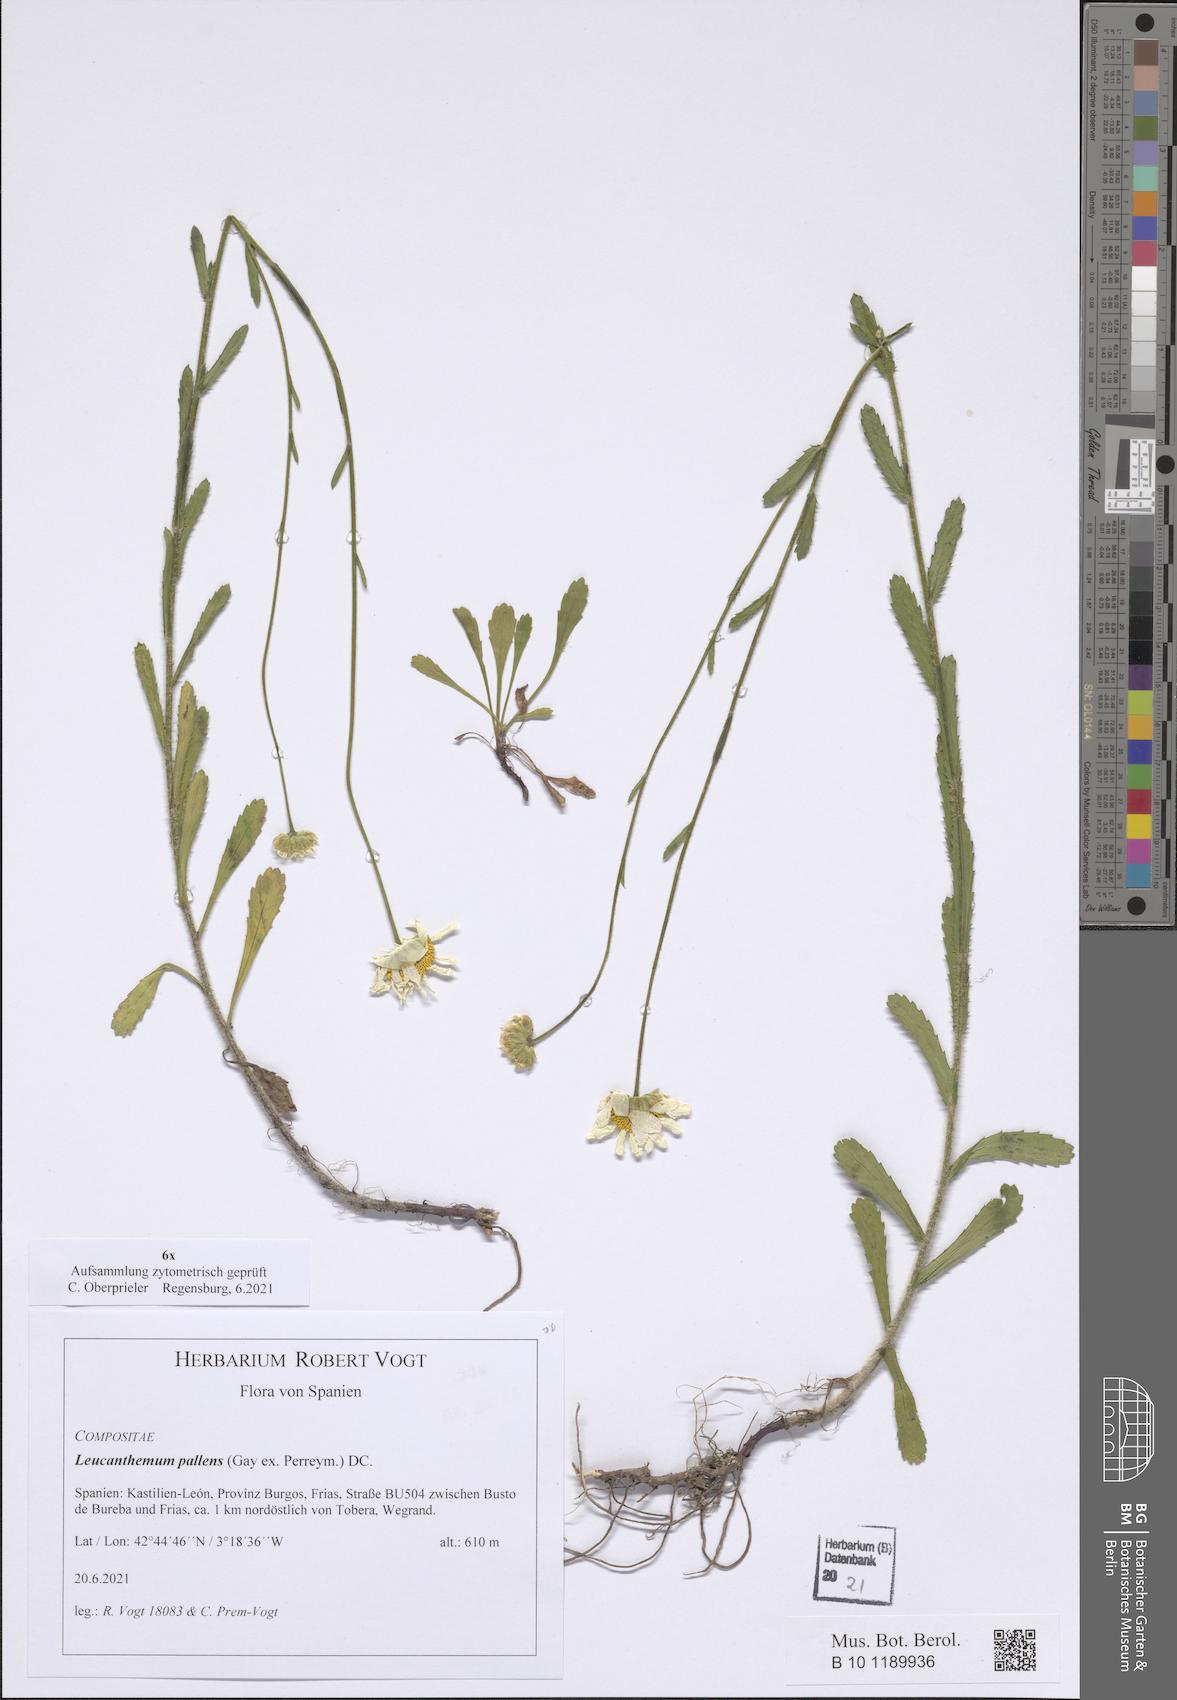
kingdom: Plantae
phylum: Tracheophyta
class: Magnoliopsida
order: Asterales
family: Asteraceae
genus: Leucanthemum
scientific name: Leucanthemum pallens
